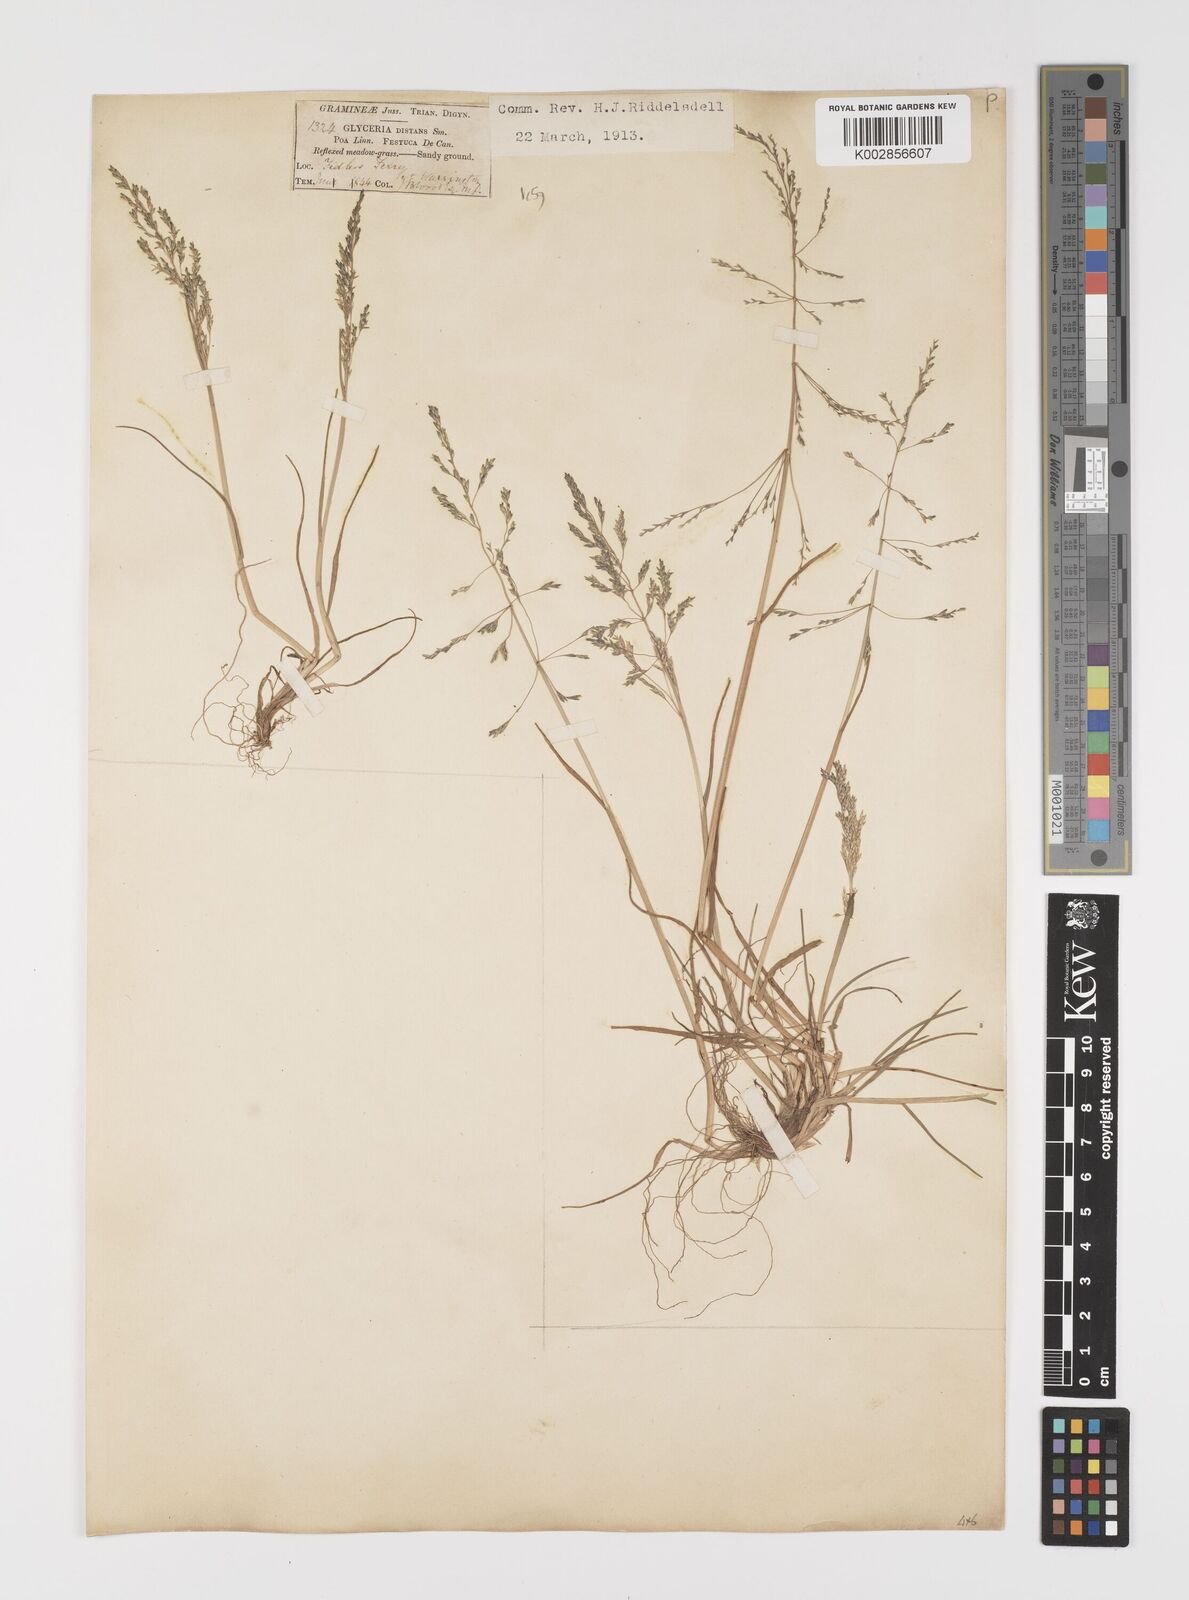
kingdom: Plantae
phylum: Tracheophyta
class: Liliopsida
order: Poales
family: Poaceae
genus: Puccinellia
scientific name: Puccinellia distans
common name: Weeping alkaligrass
